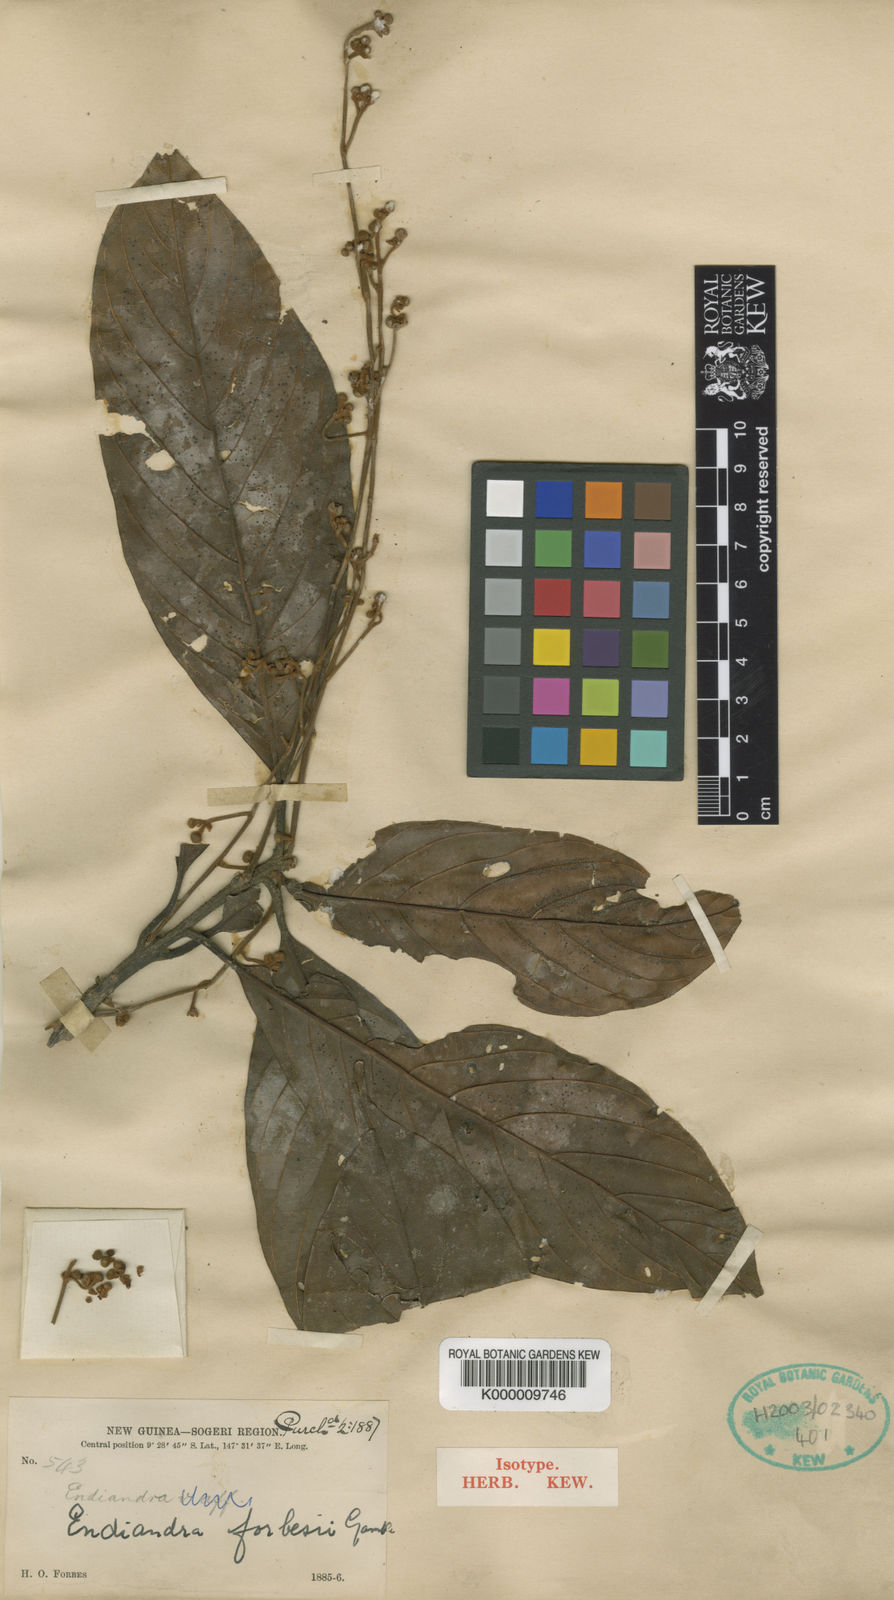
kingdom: Plantae
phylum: Tracheophyta
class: Magnoliopsida
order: Laurales
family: Lauraceae
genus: Endiandra
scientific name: Endiandra forbesii
